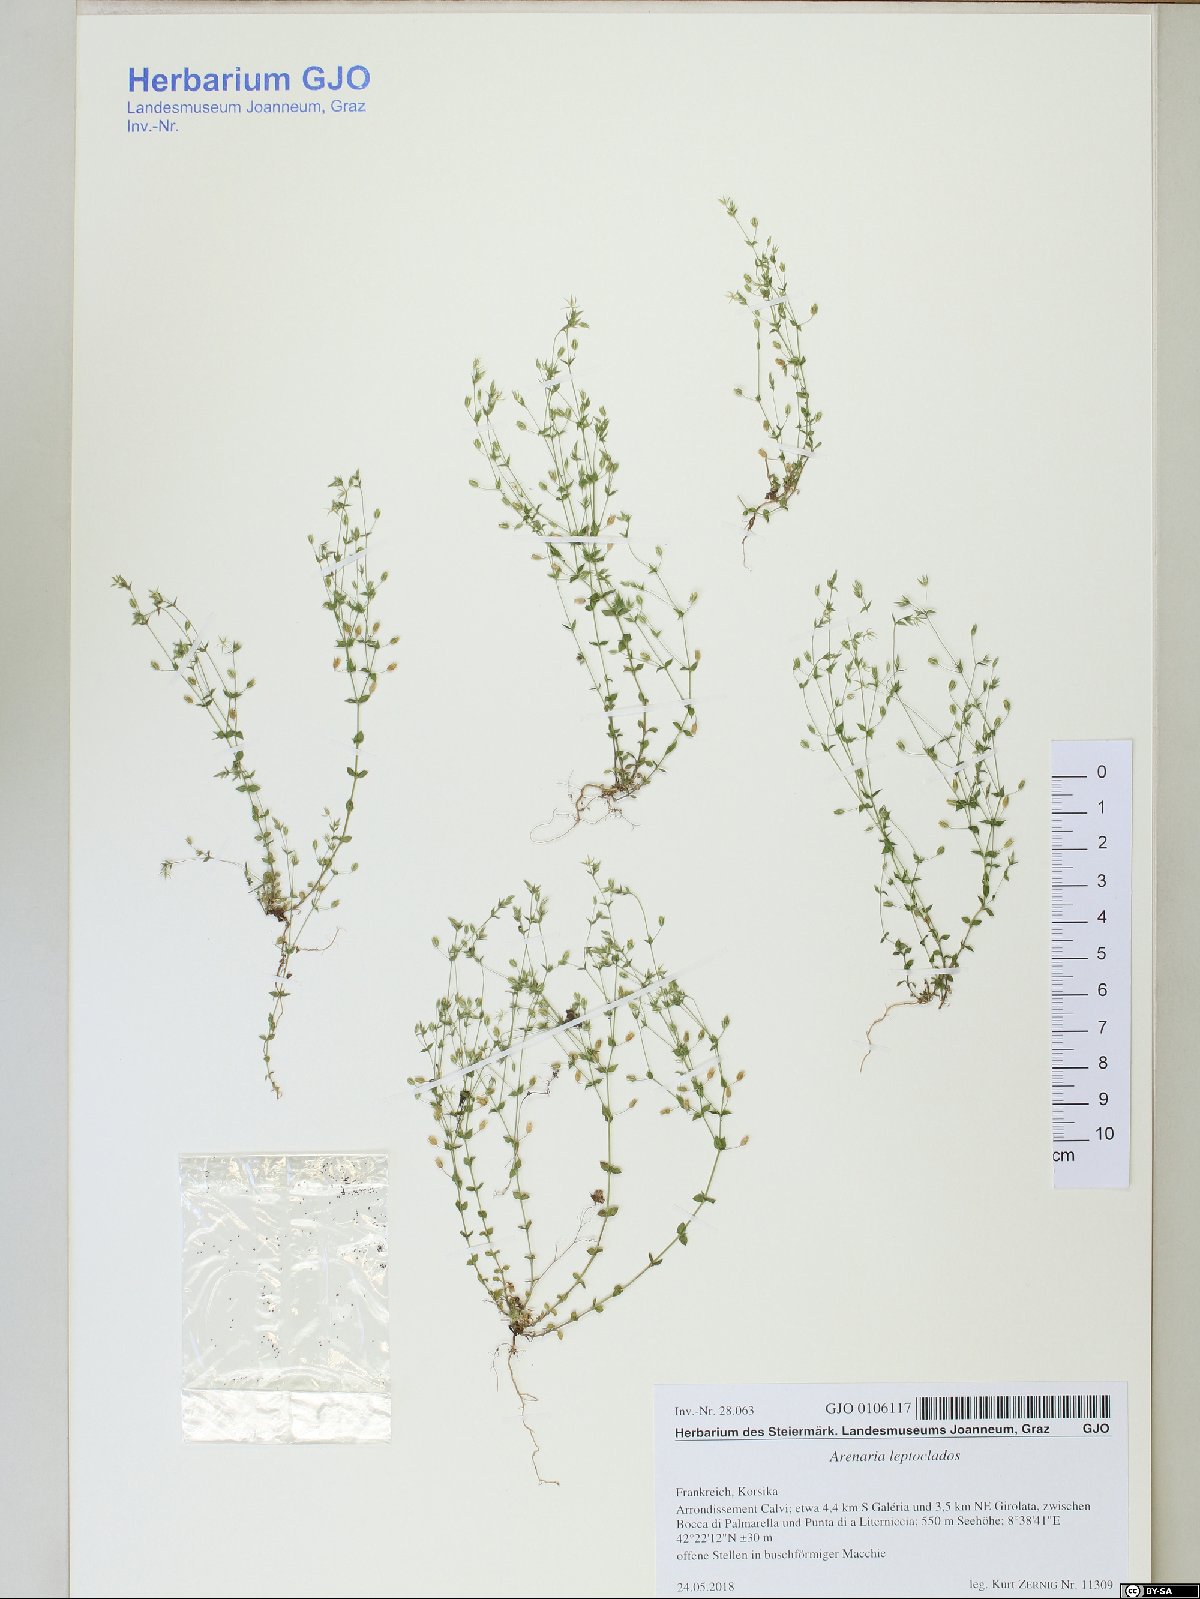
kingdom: Plantae
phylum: Tracheophyta
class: Magnoliopsida
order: Caryophyllales
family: Caryophyllaceae
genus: Arenaria
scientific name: Arenaria leptoclados
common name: Thyme-leaved sandwort
